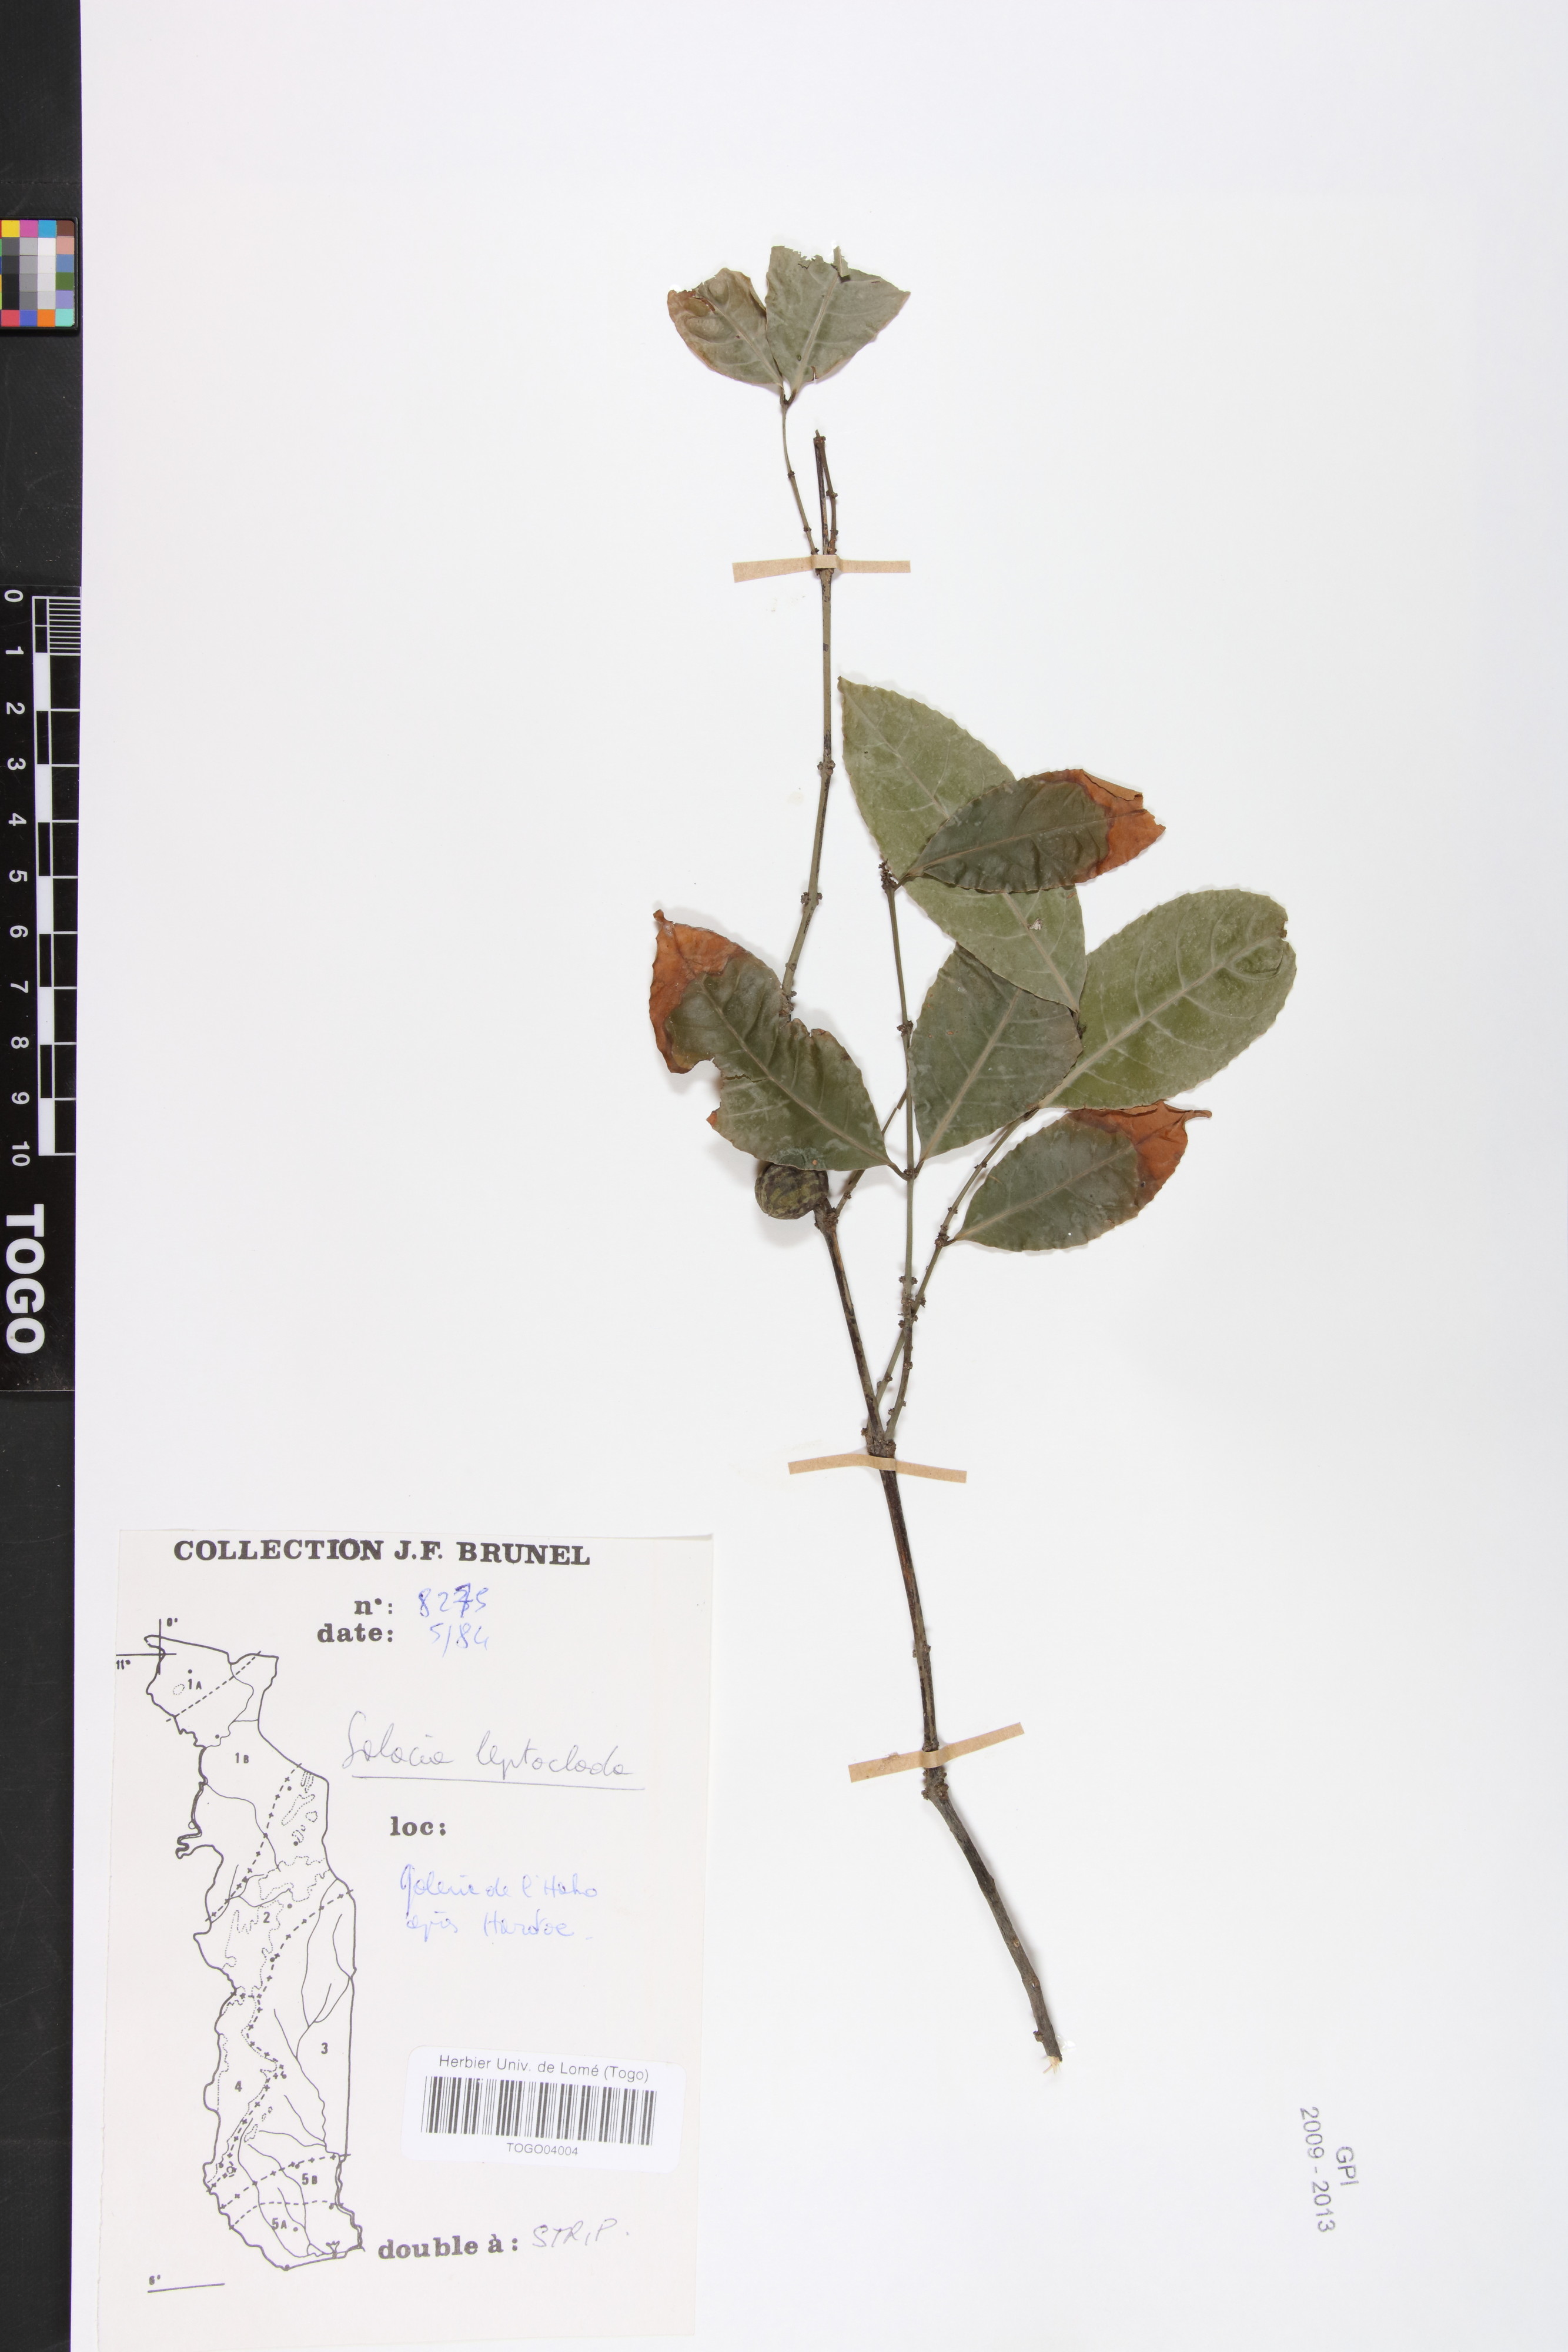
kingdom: Plantae
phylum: Tracheophyta
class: Magnoliopsida
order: Celastrales
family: Celastraceae
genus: Salacia
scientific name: Salacia leptoclada
